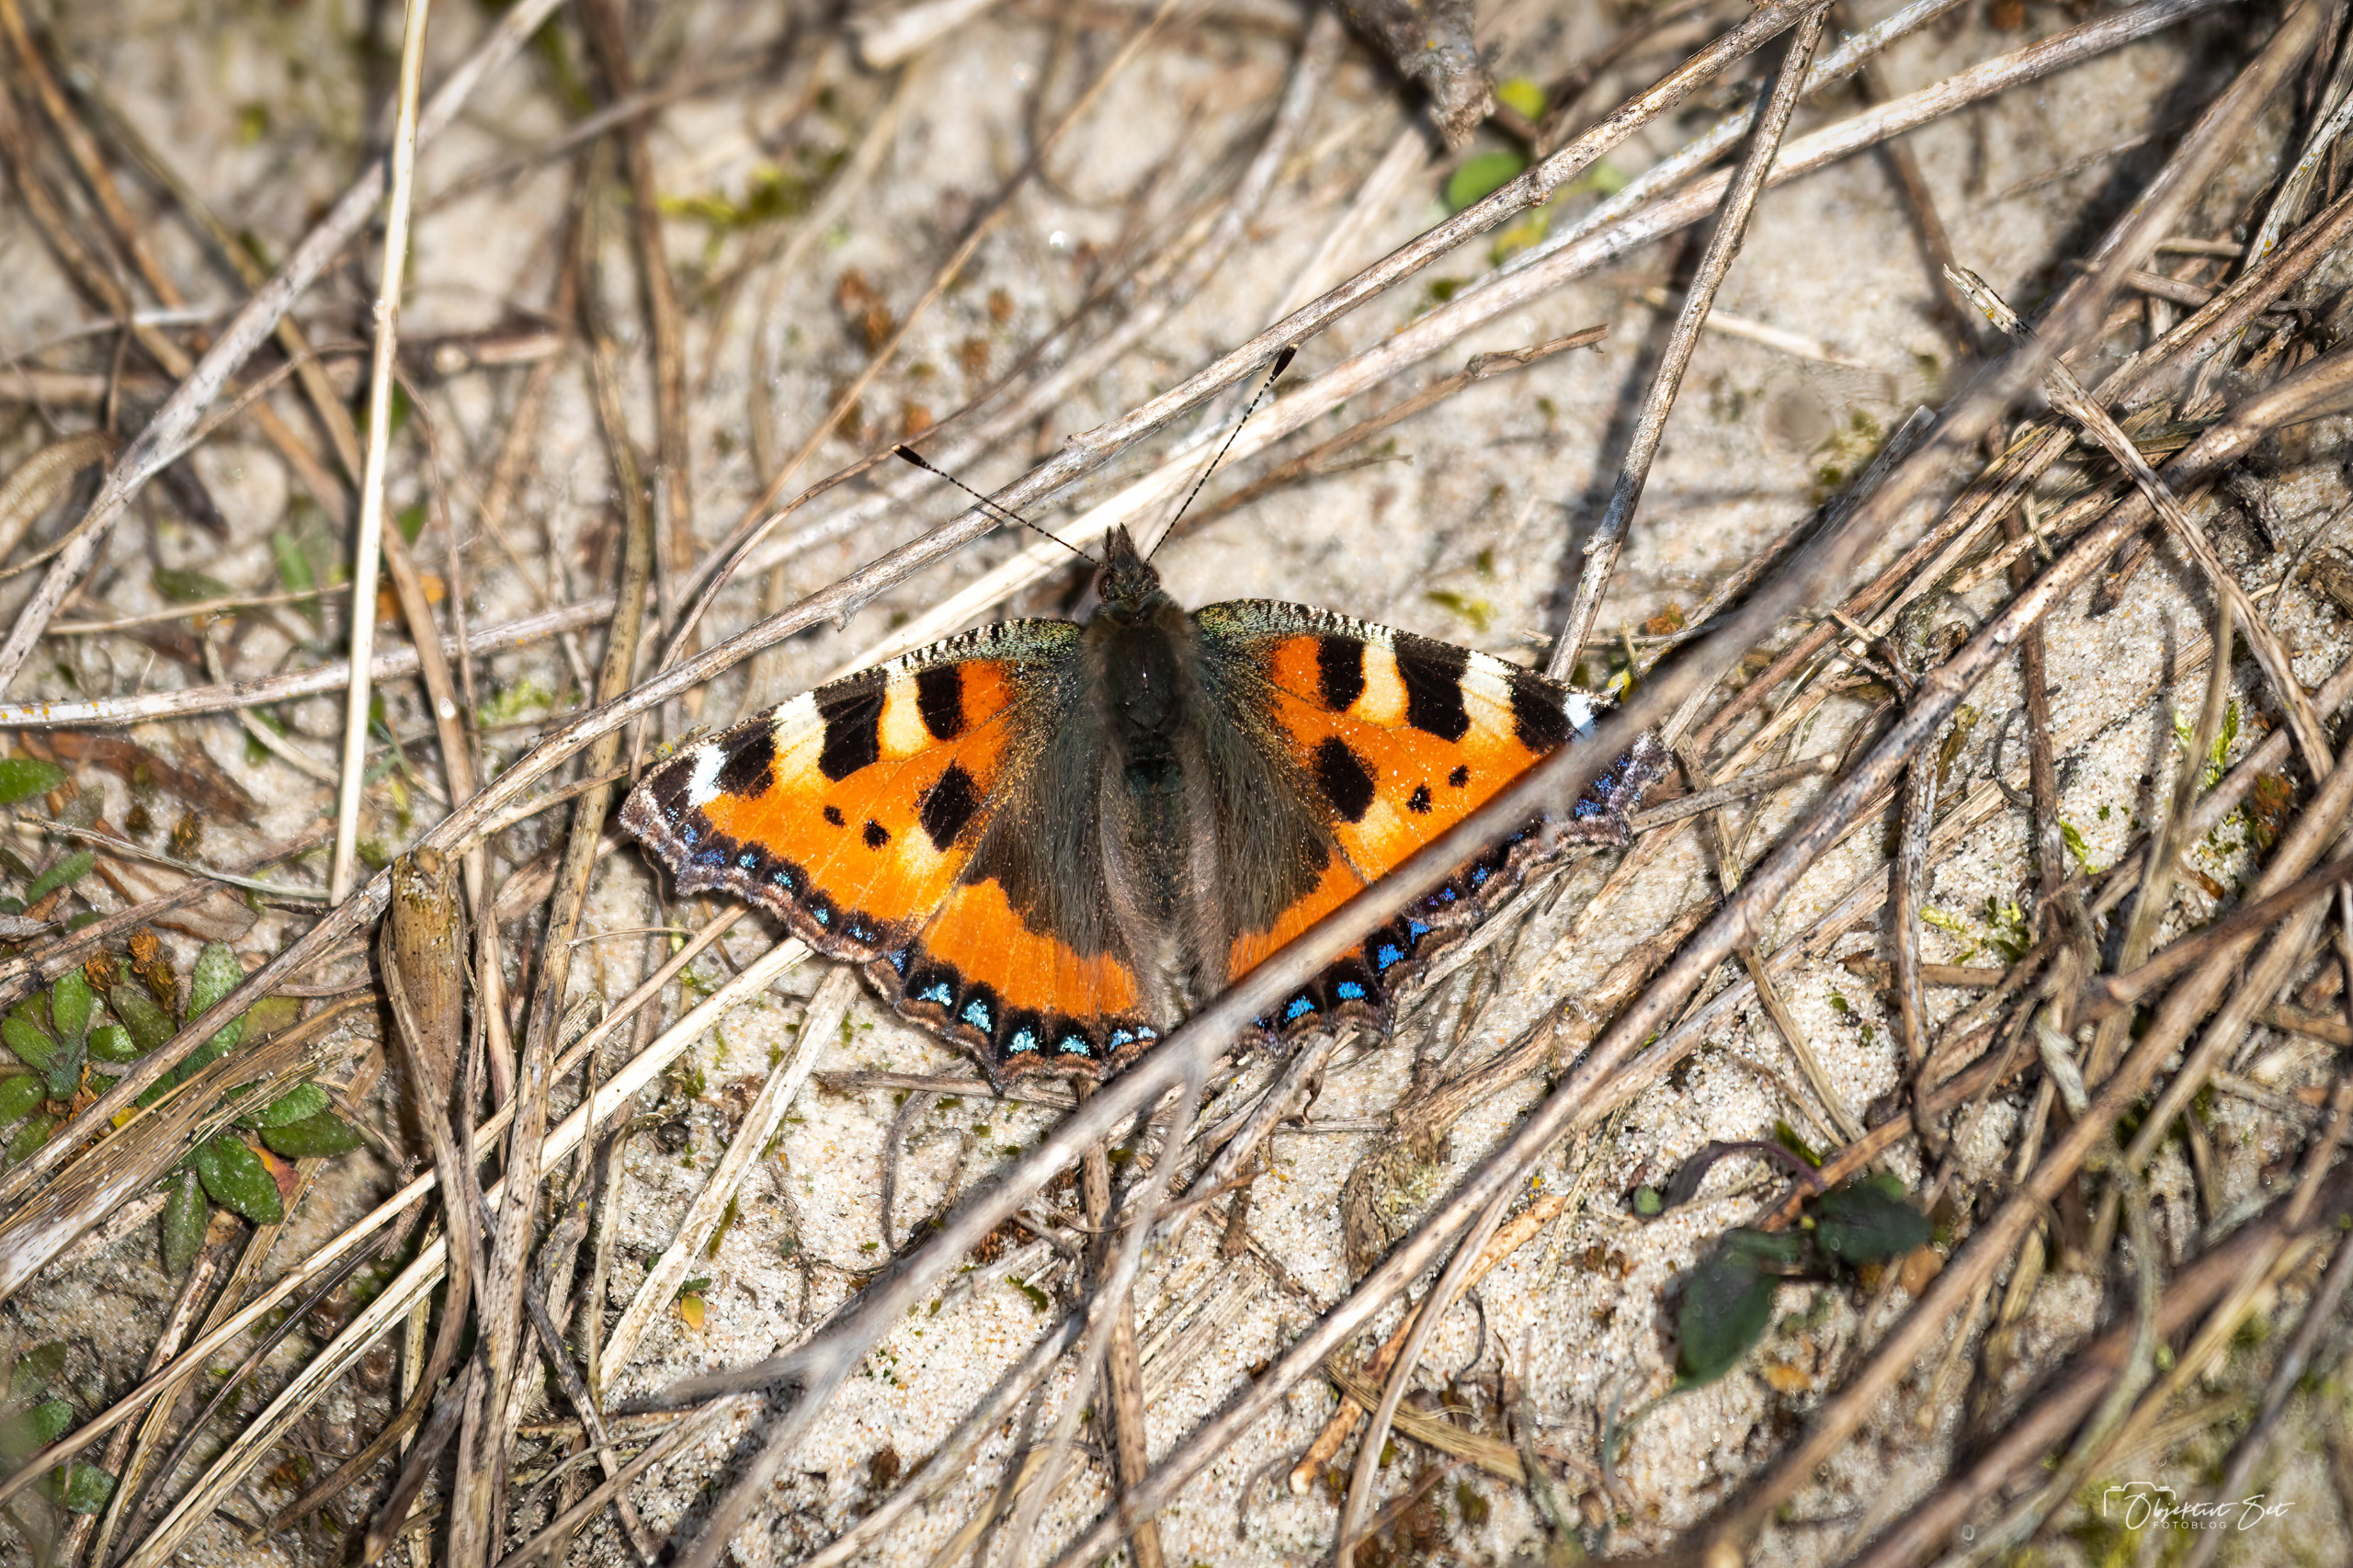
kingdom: Animalia
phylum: Arthropoda
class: Insecta
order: Lepidoptera
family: Nymphalidae
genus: Aglais
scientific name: Aglais urticae
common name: Nældens takvinge
